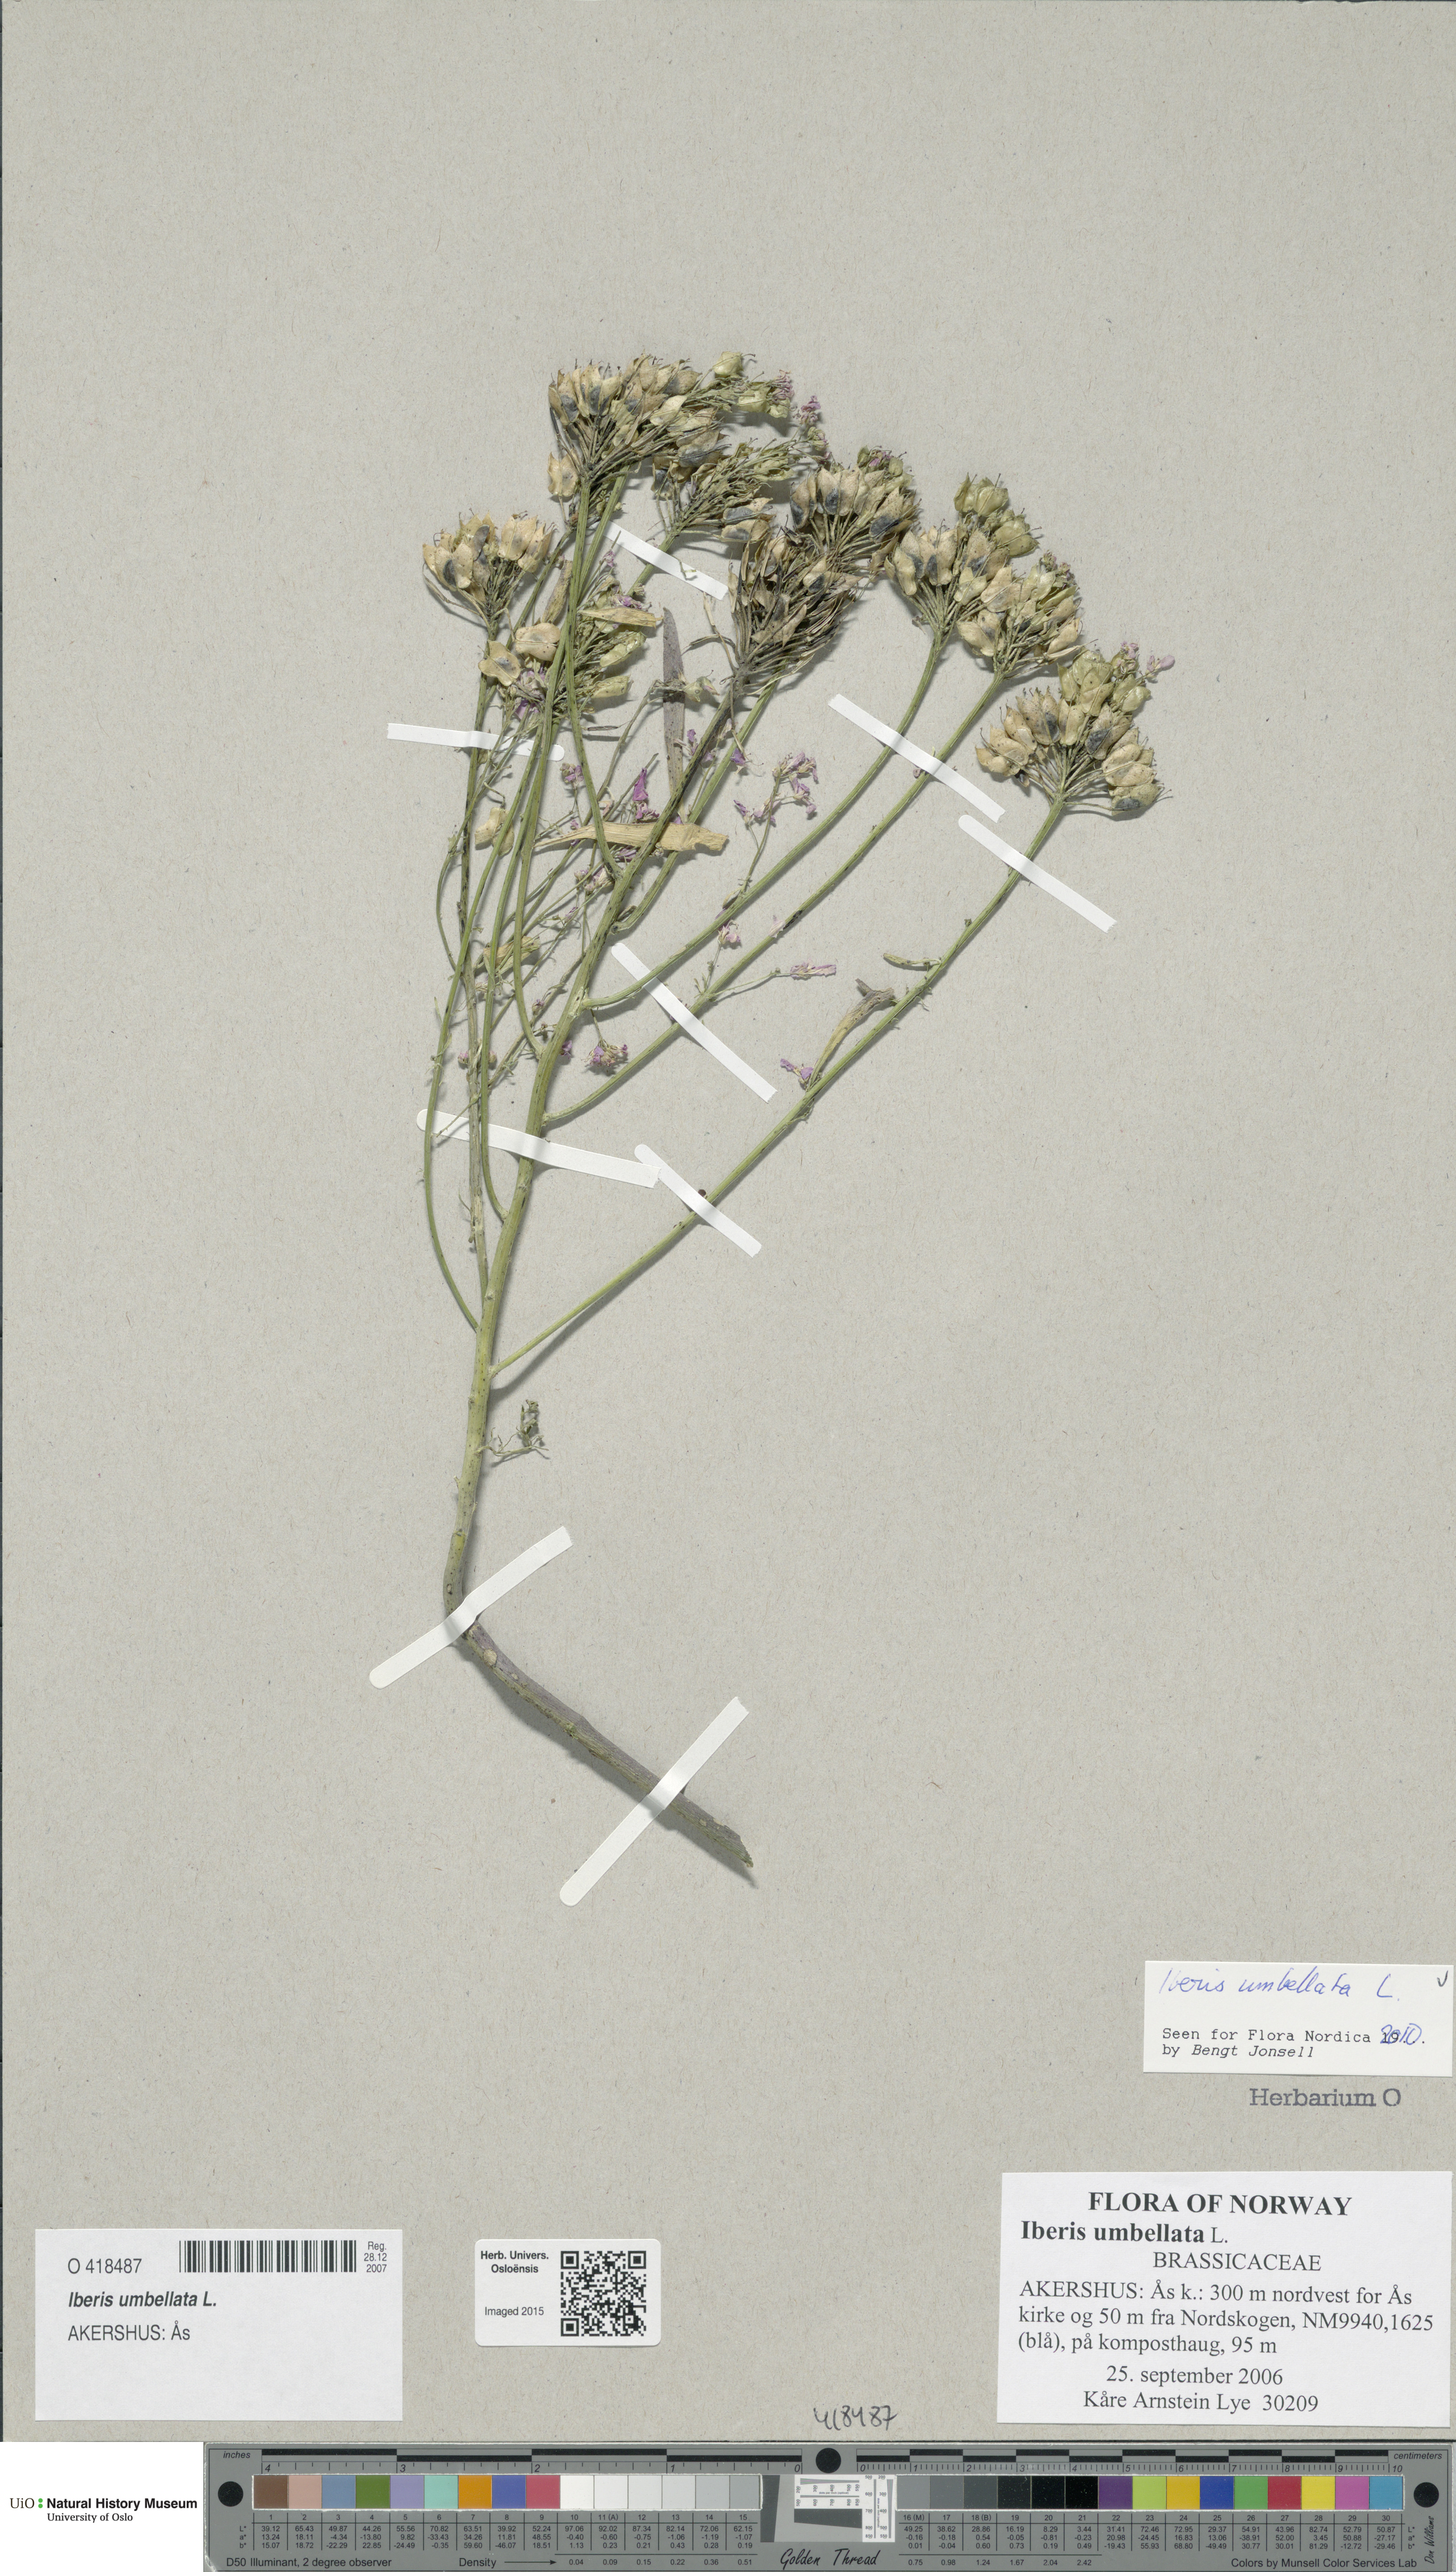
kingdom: Plantae
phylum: Tracheophyta
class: Magnoliopsida
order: Brassicales
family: Brassicaceae
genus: Iberis
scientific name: Iberis umbellata
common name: Globe candytuft
